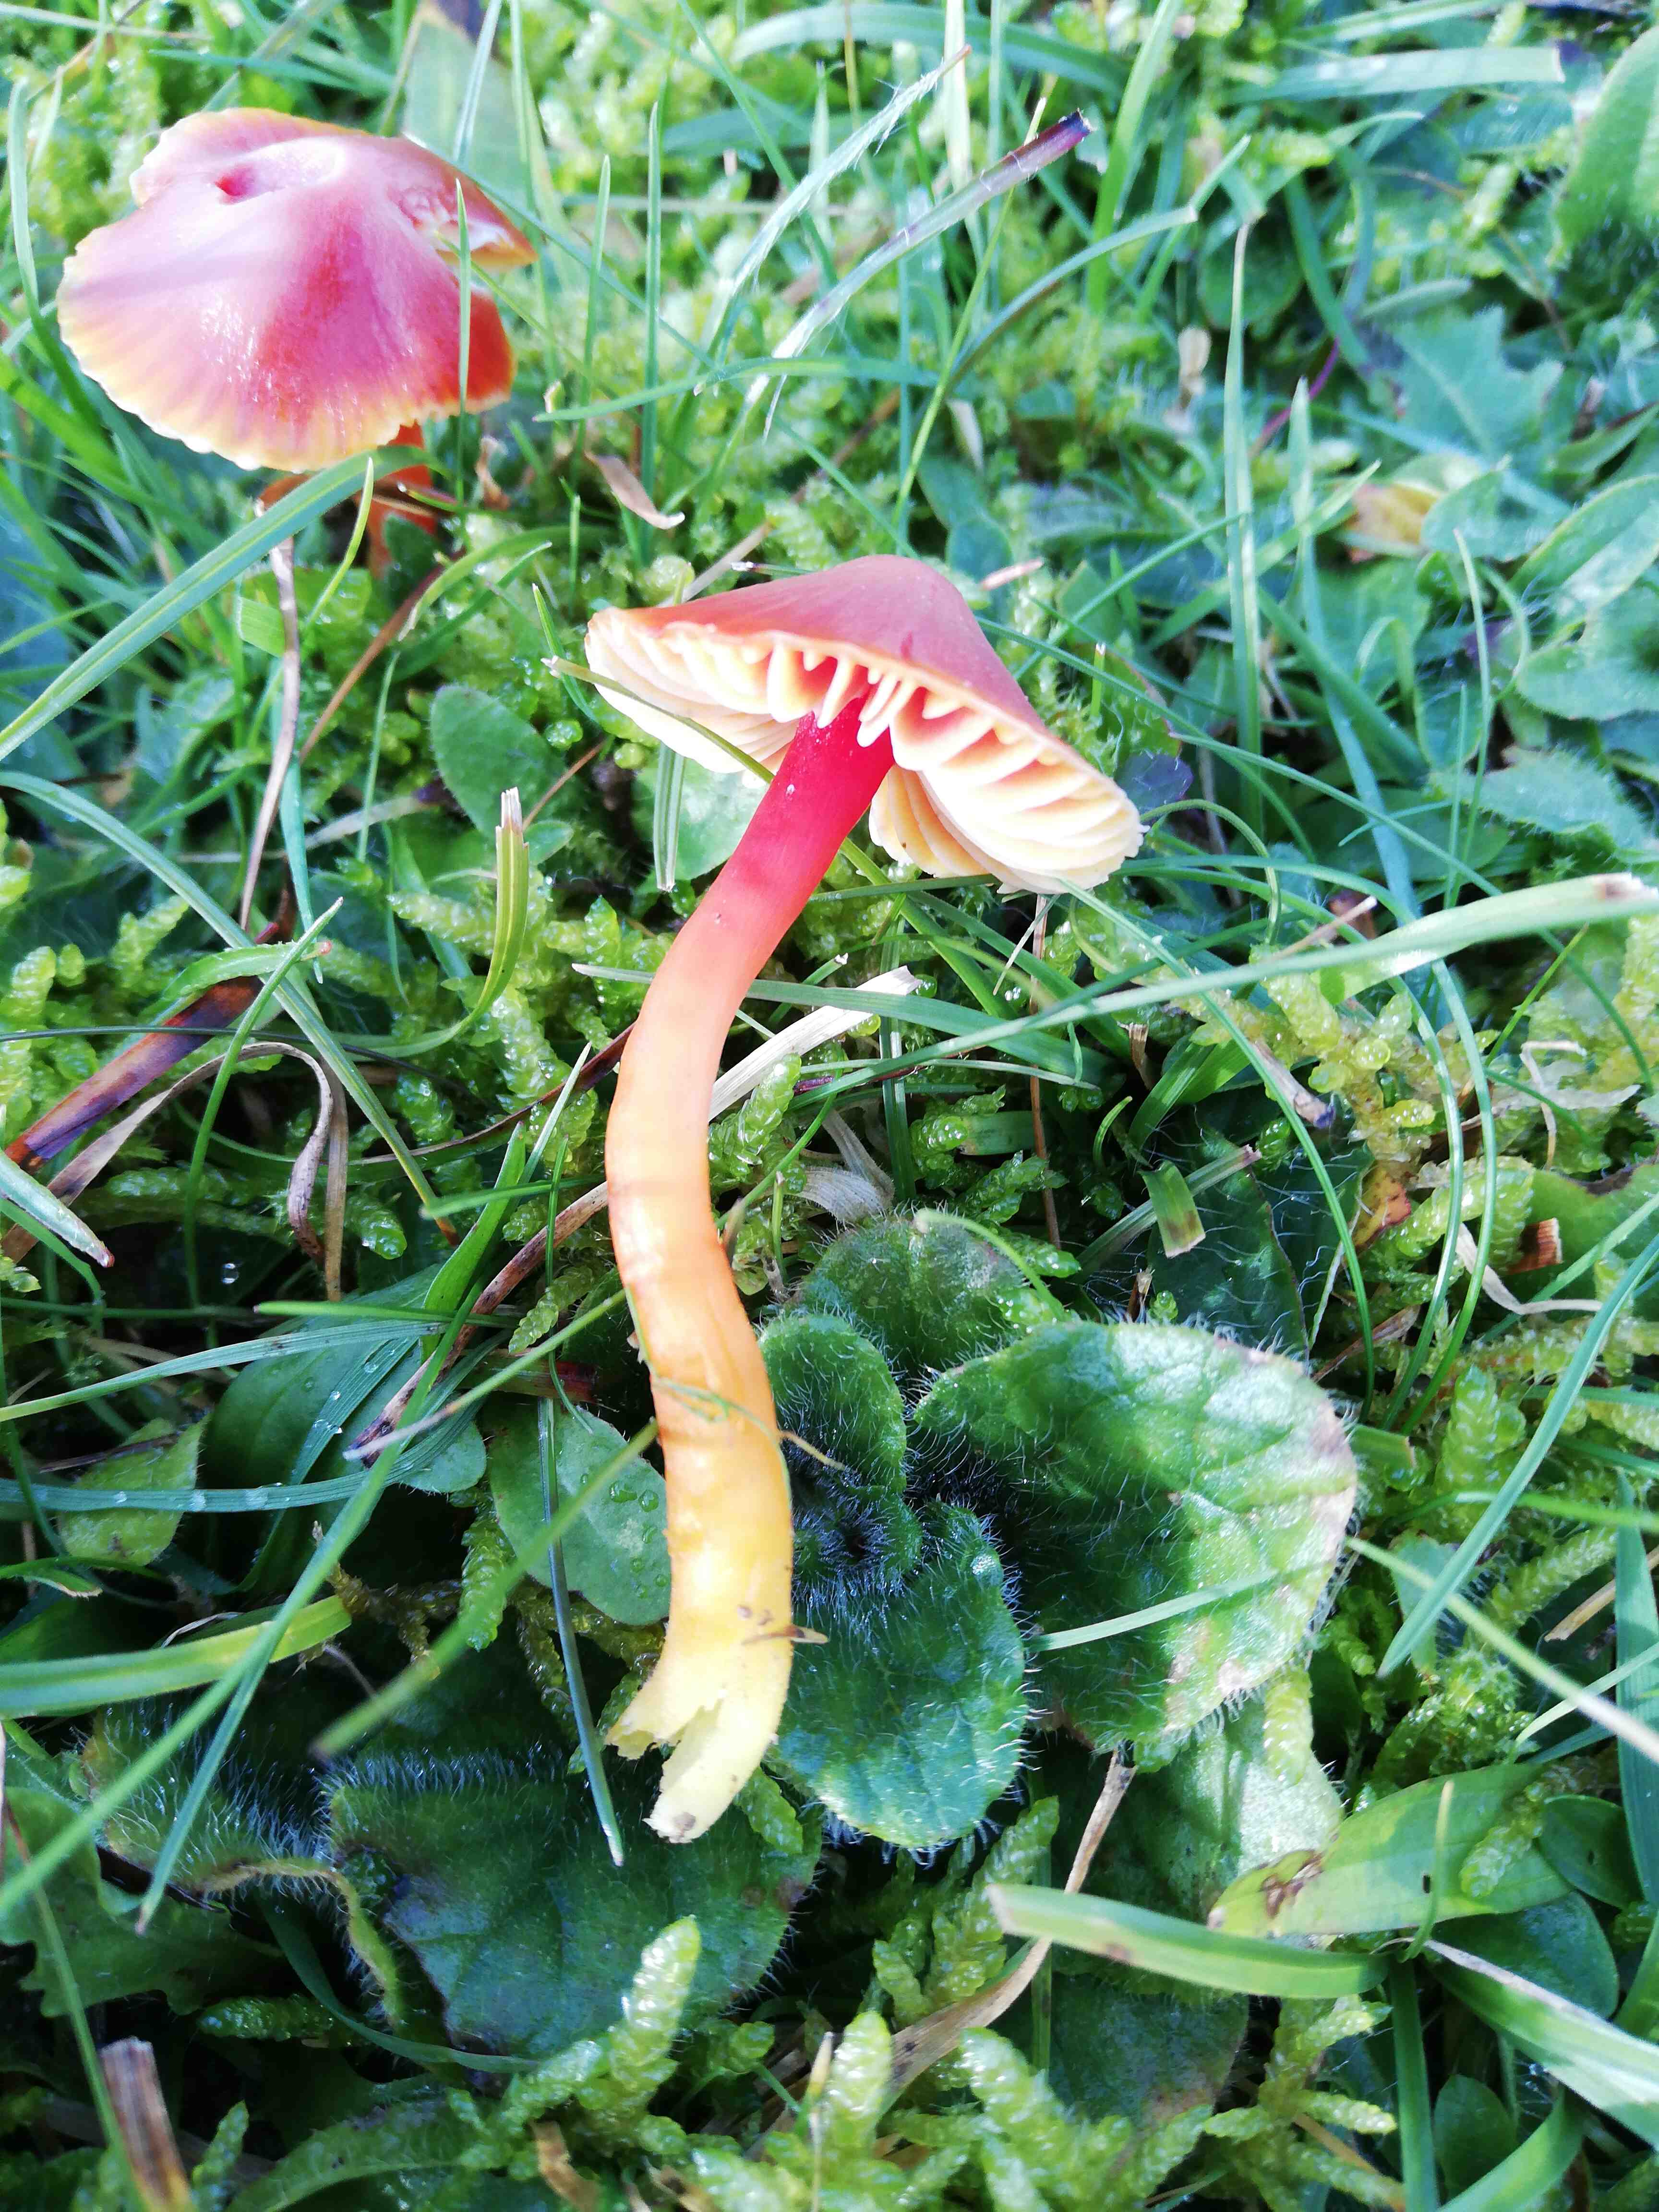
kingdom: Fungi
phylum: Basidiomycota
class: Agaricomycetes
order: Agaricales
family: Hygrophoraceae
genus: Hygrocybe
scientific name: Hygrocybe coccinea
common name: cinnober-vokshat
